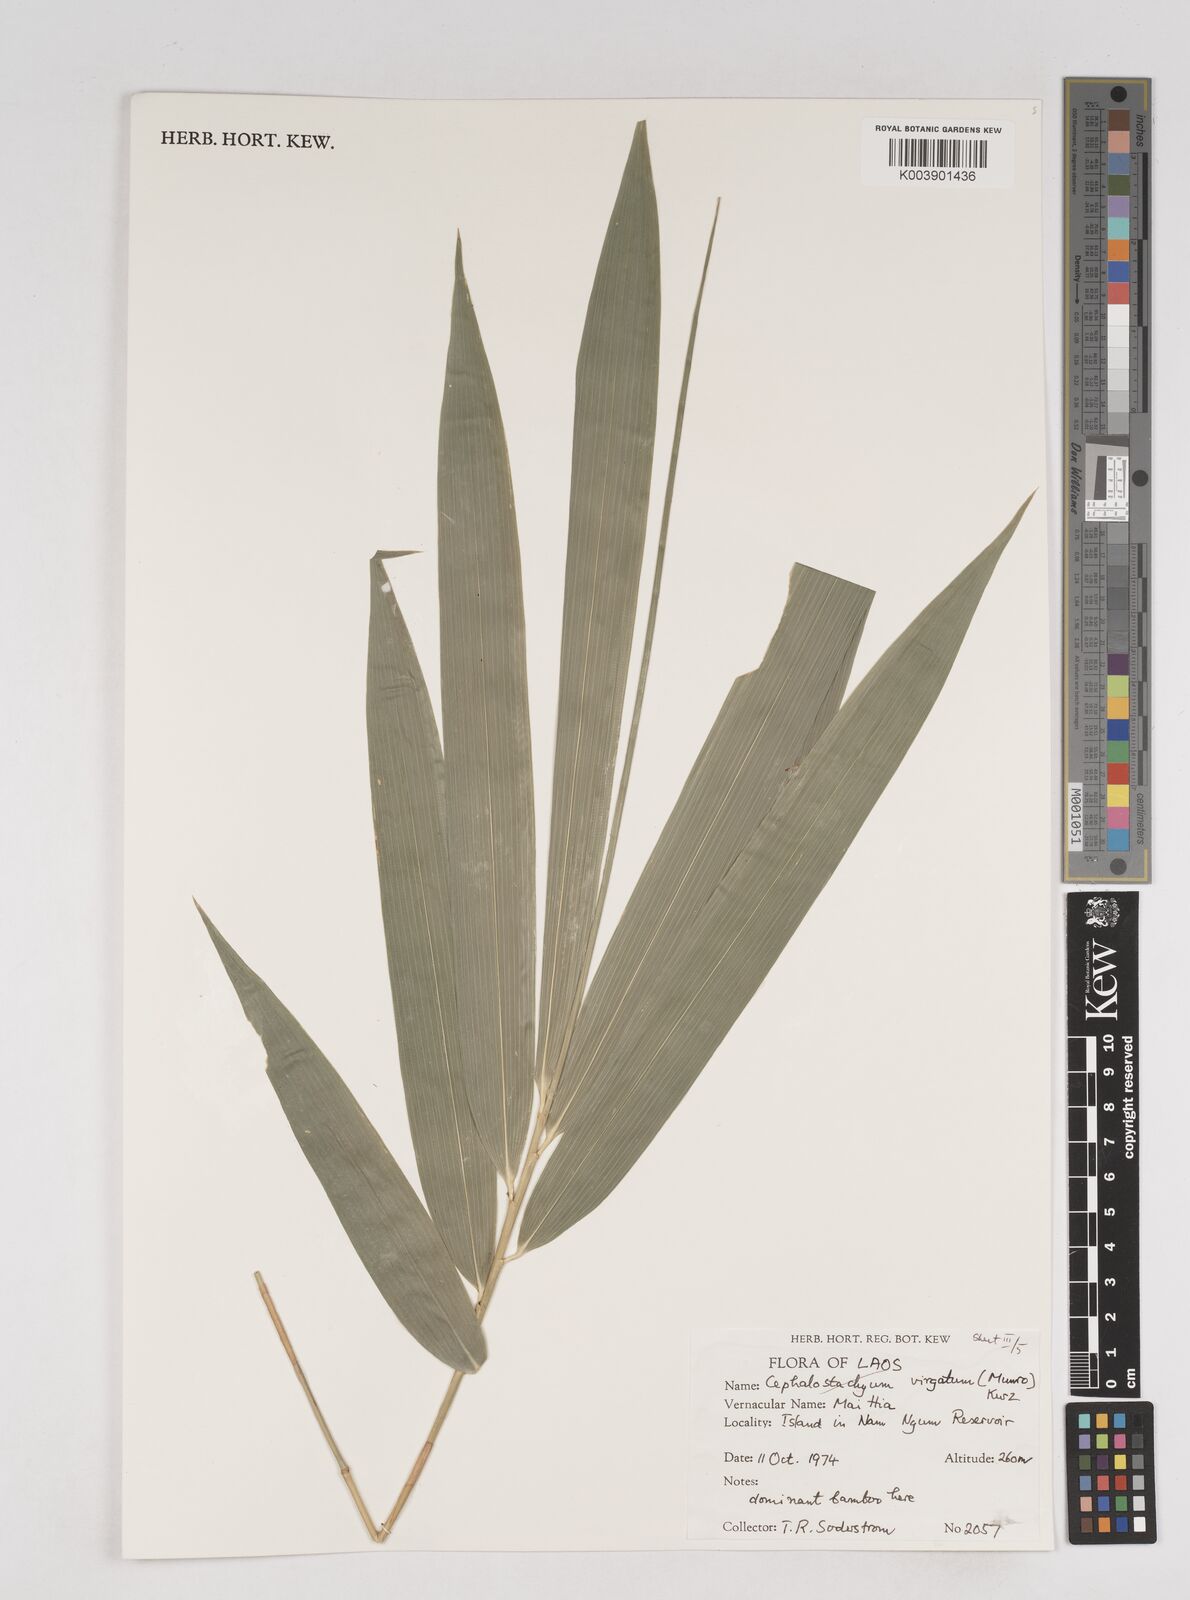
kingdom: Plantae
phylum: Tracheophyta
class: Liliopsida
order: Poales
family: Poaceae
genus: Schizostachyum
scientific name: Schizostachyum
